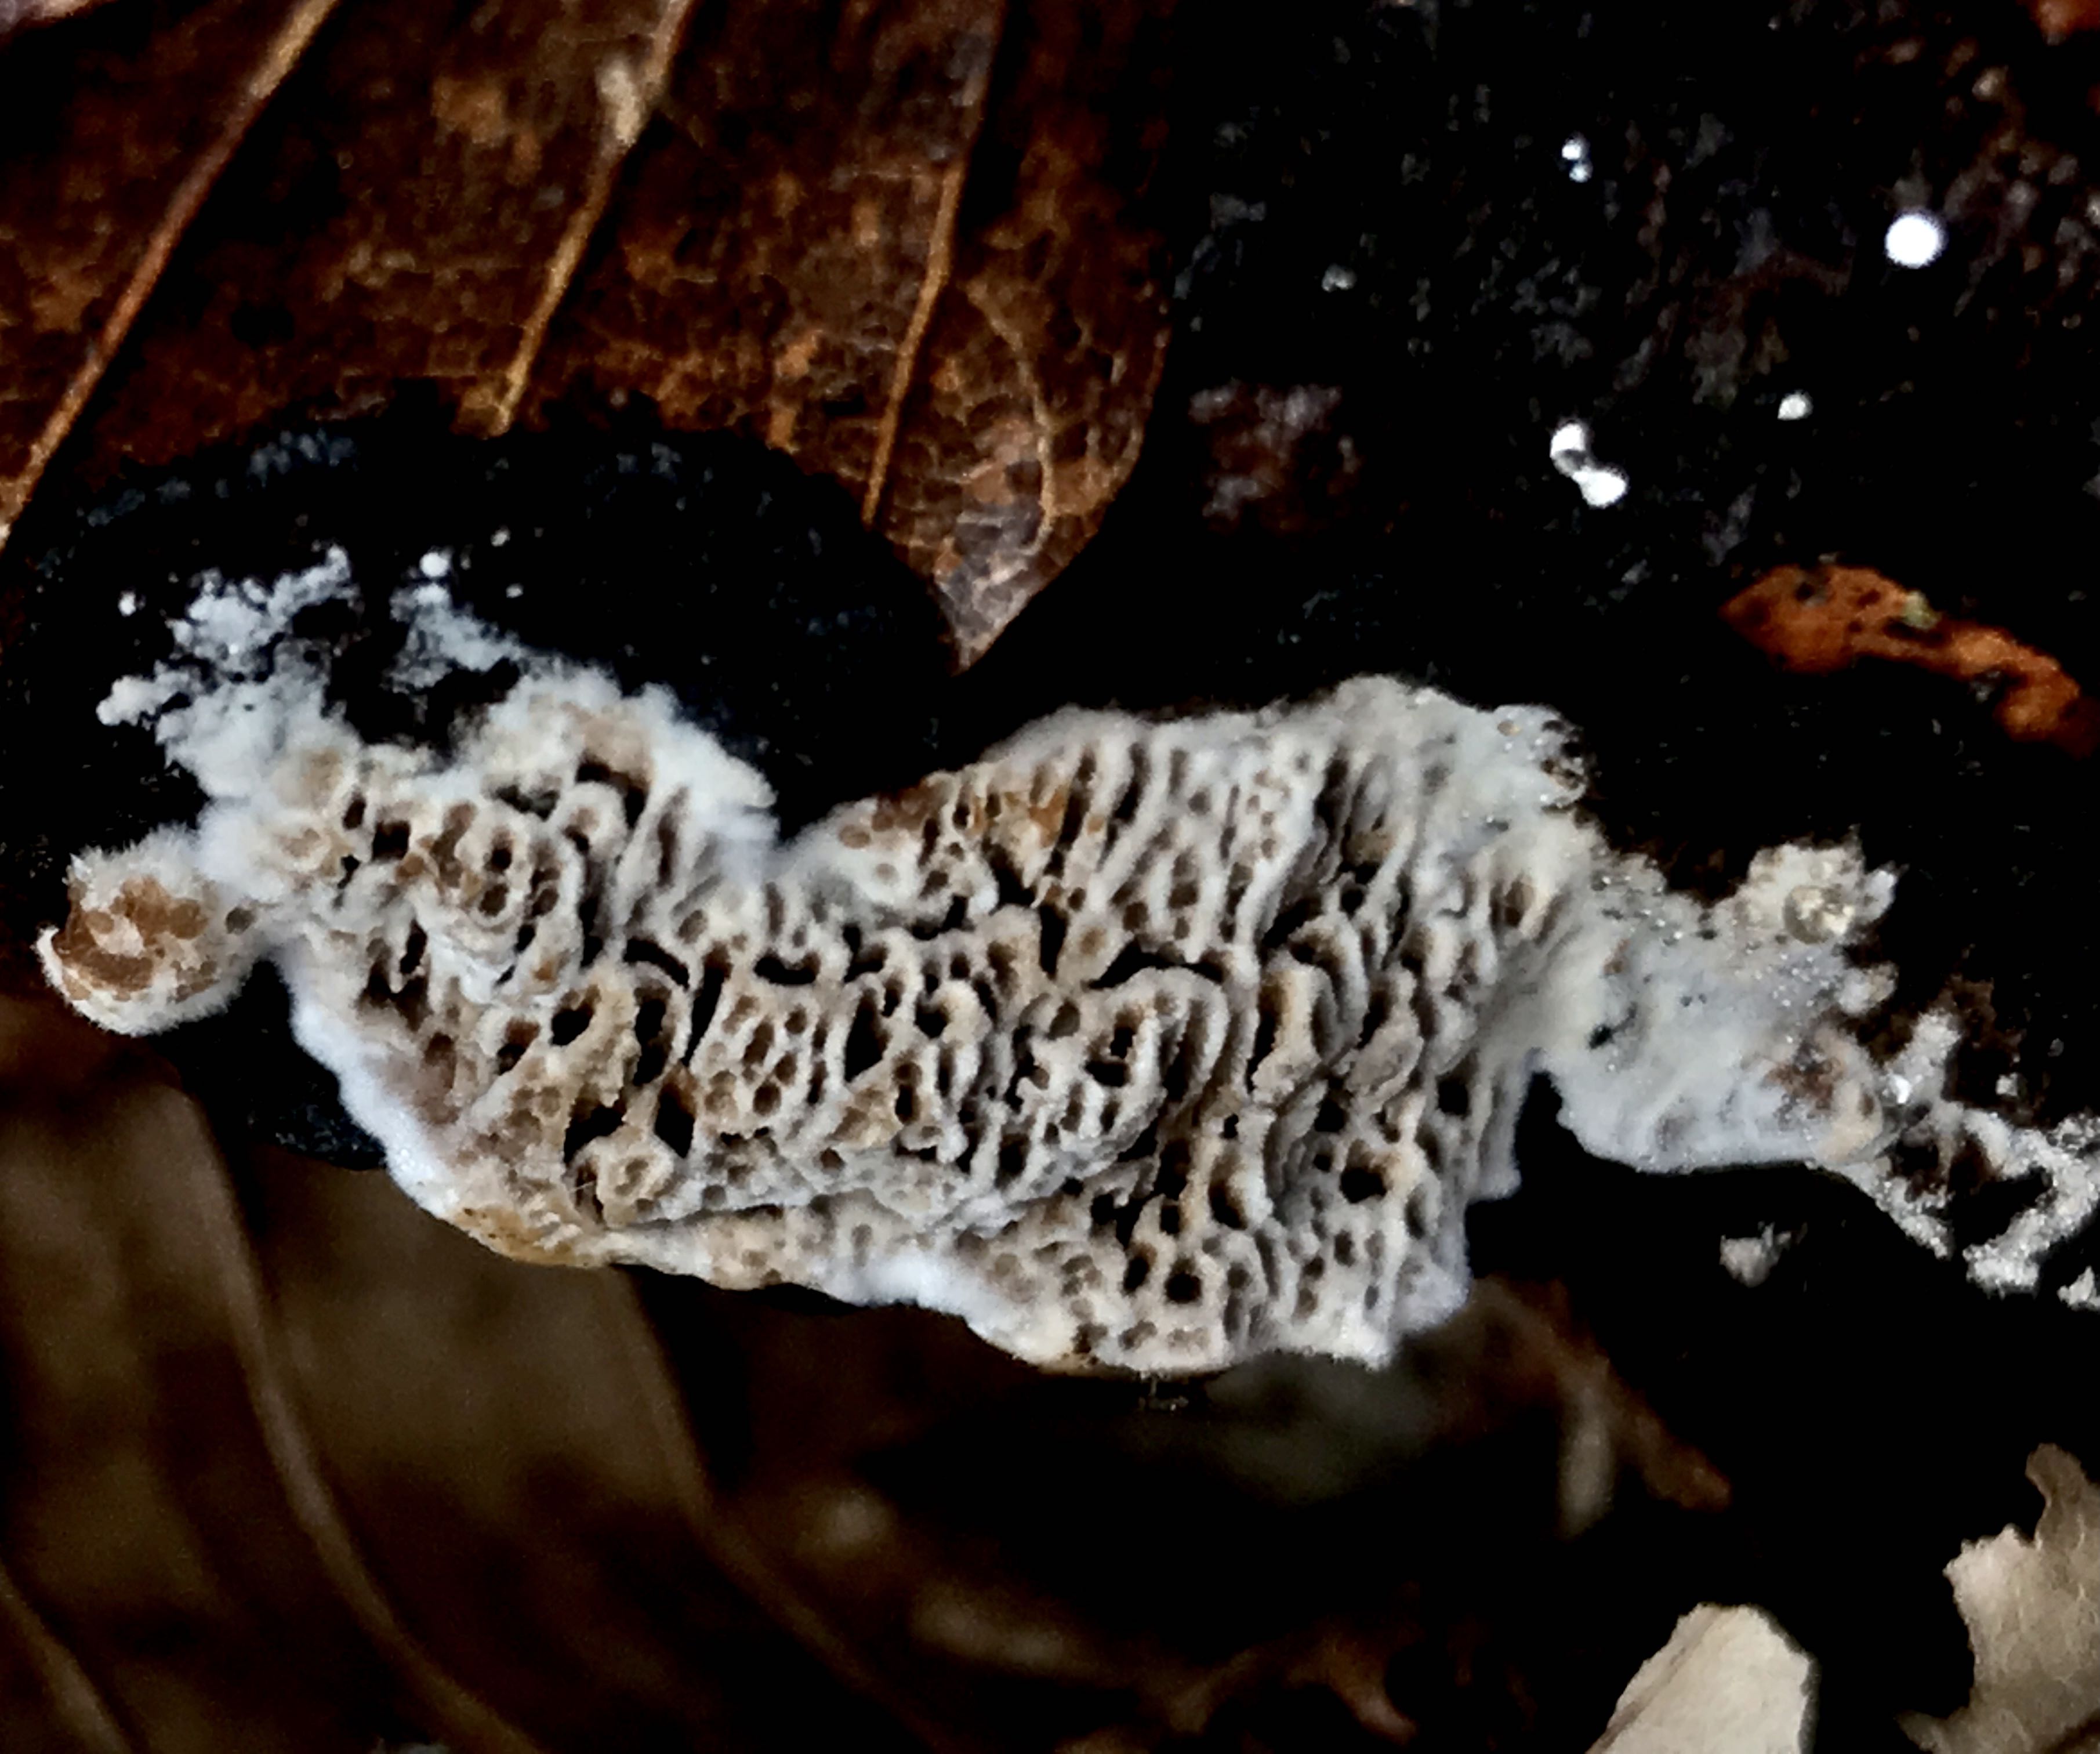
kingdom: Fungi
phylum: Basidiomycota
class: Agaricomycetes
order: Polyporales
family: Polyporaceae
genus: Podofomes
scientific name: Podofomes mollis
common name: blød begporesvamp
